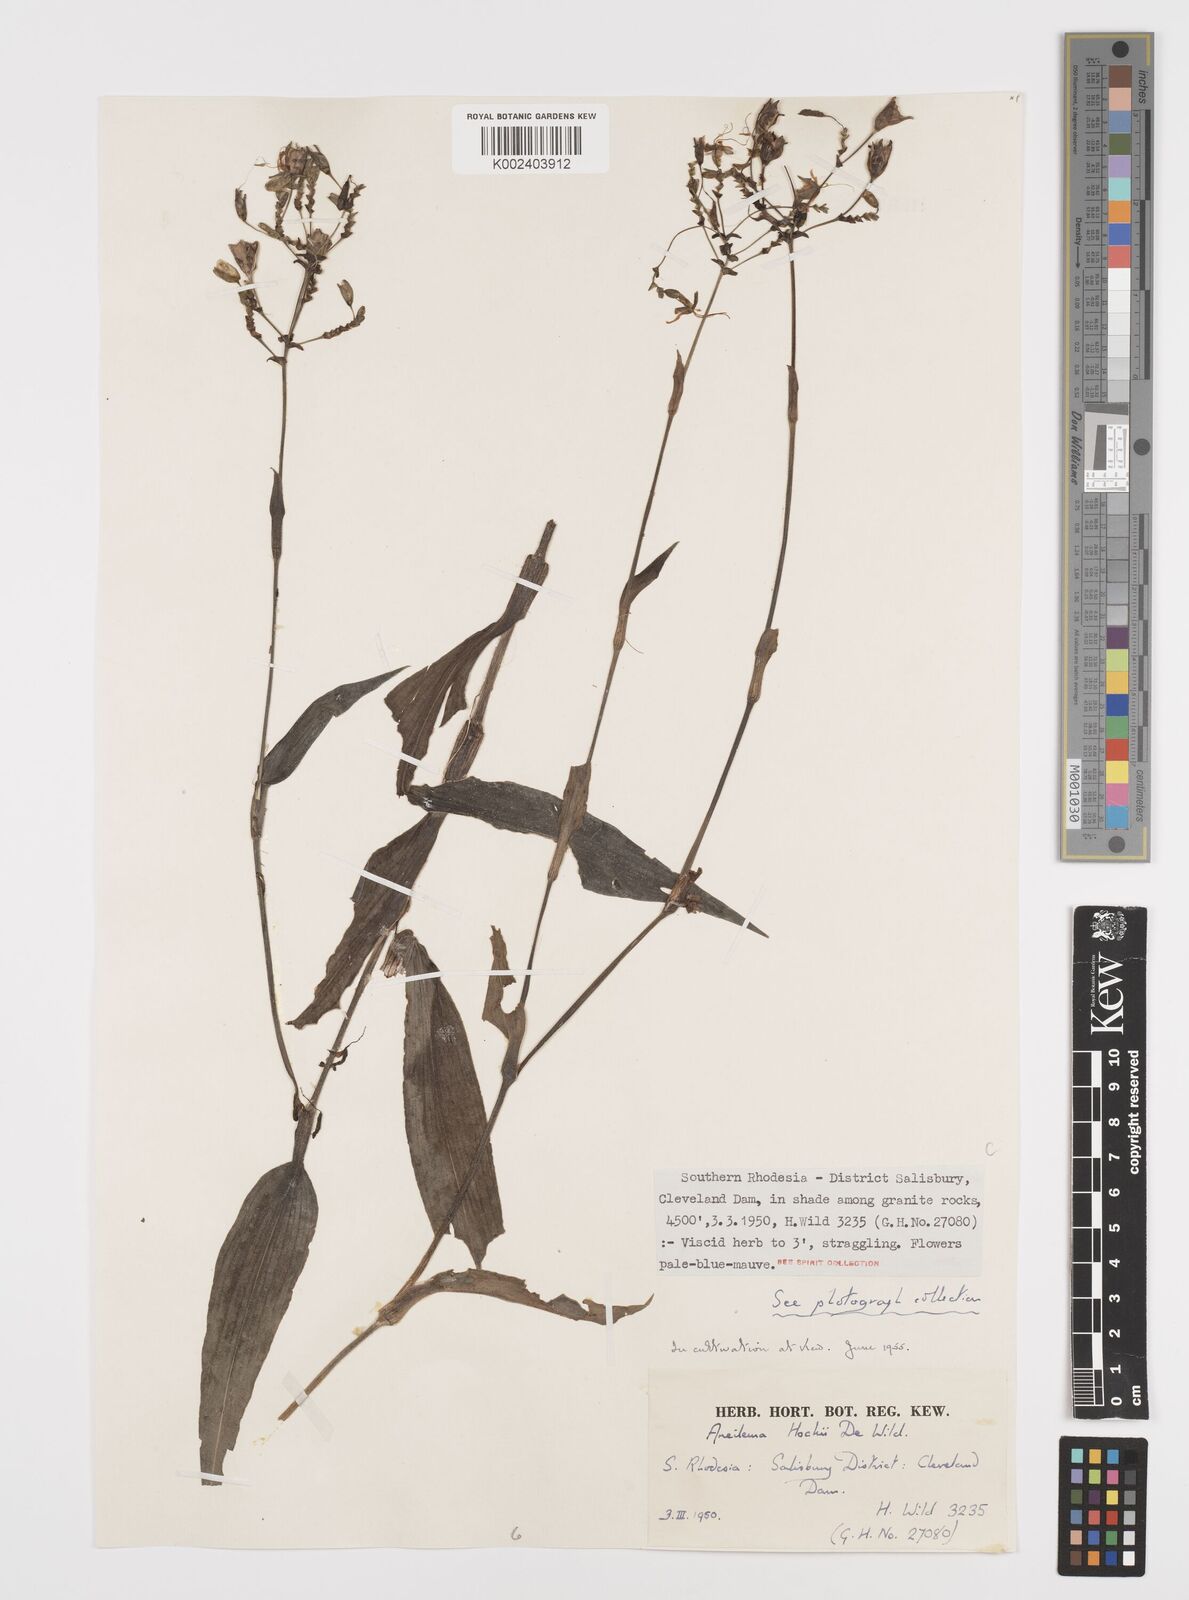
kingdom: Plantae
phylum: Tracheophyta
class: Liliopsida
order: Commelinales
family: Commelinaceae
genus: Aneilema
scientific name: Aneilema hockii
